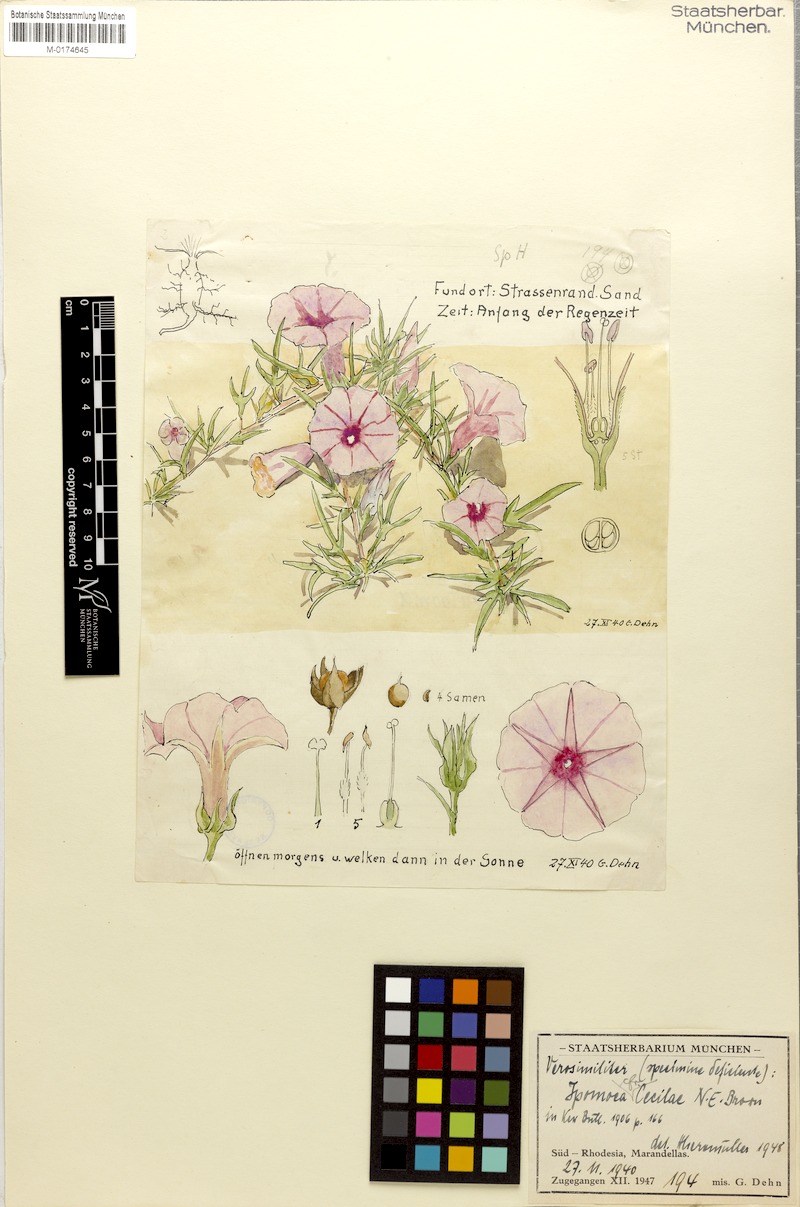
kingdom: Plantae
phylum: Tracheophyta
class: Magnoliopsida
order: Solanales
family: Convolvulaceae
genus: Ipomoea
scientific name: Ipomoea oenotherae
